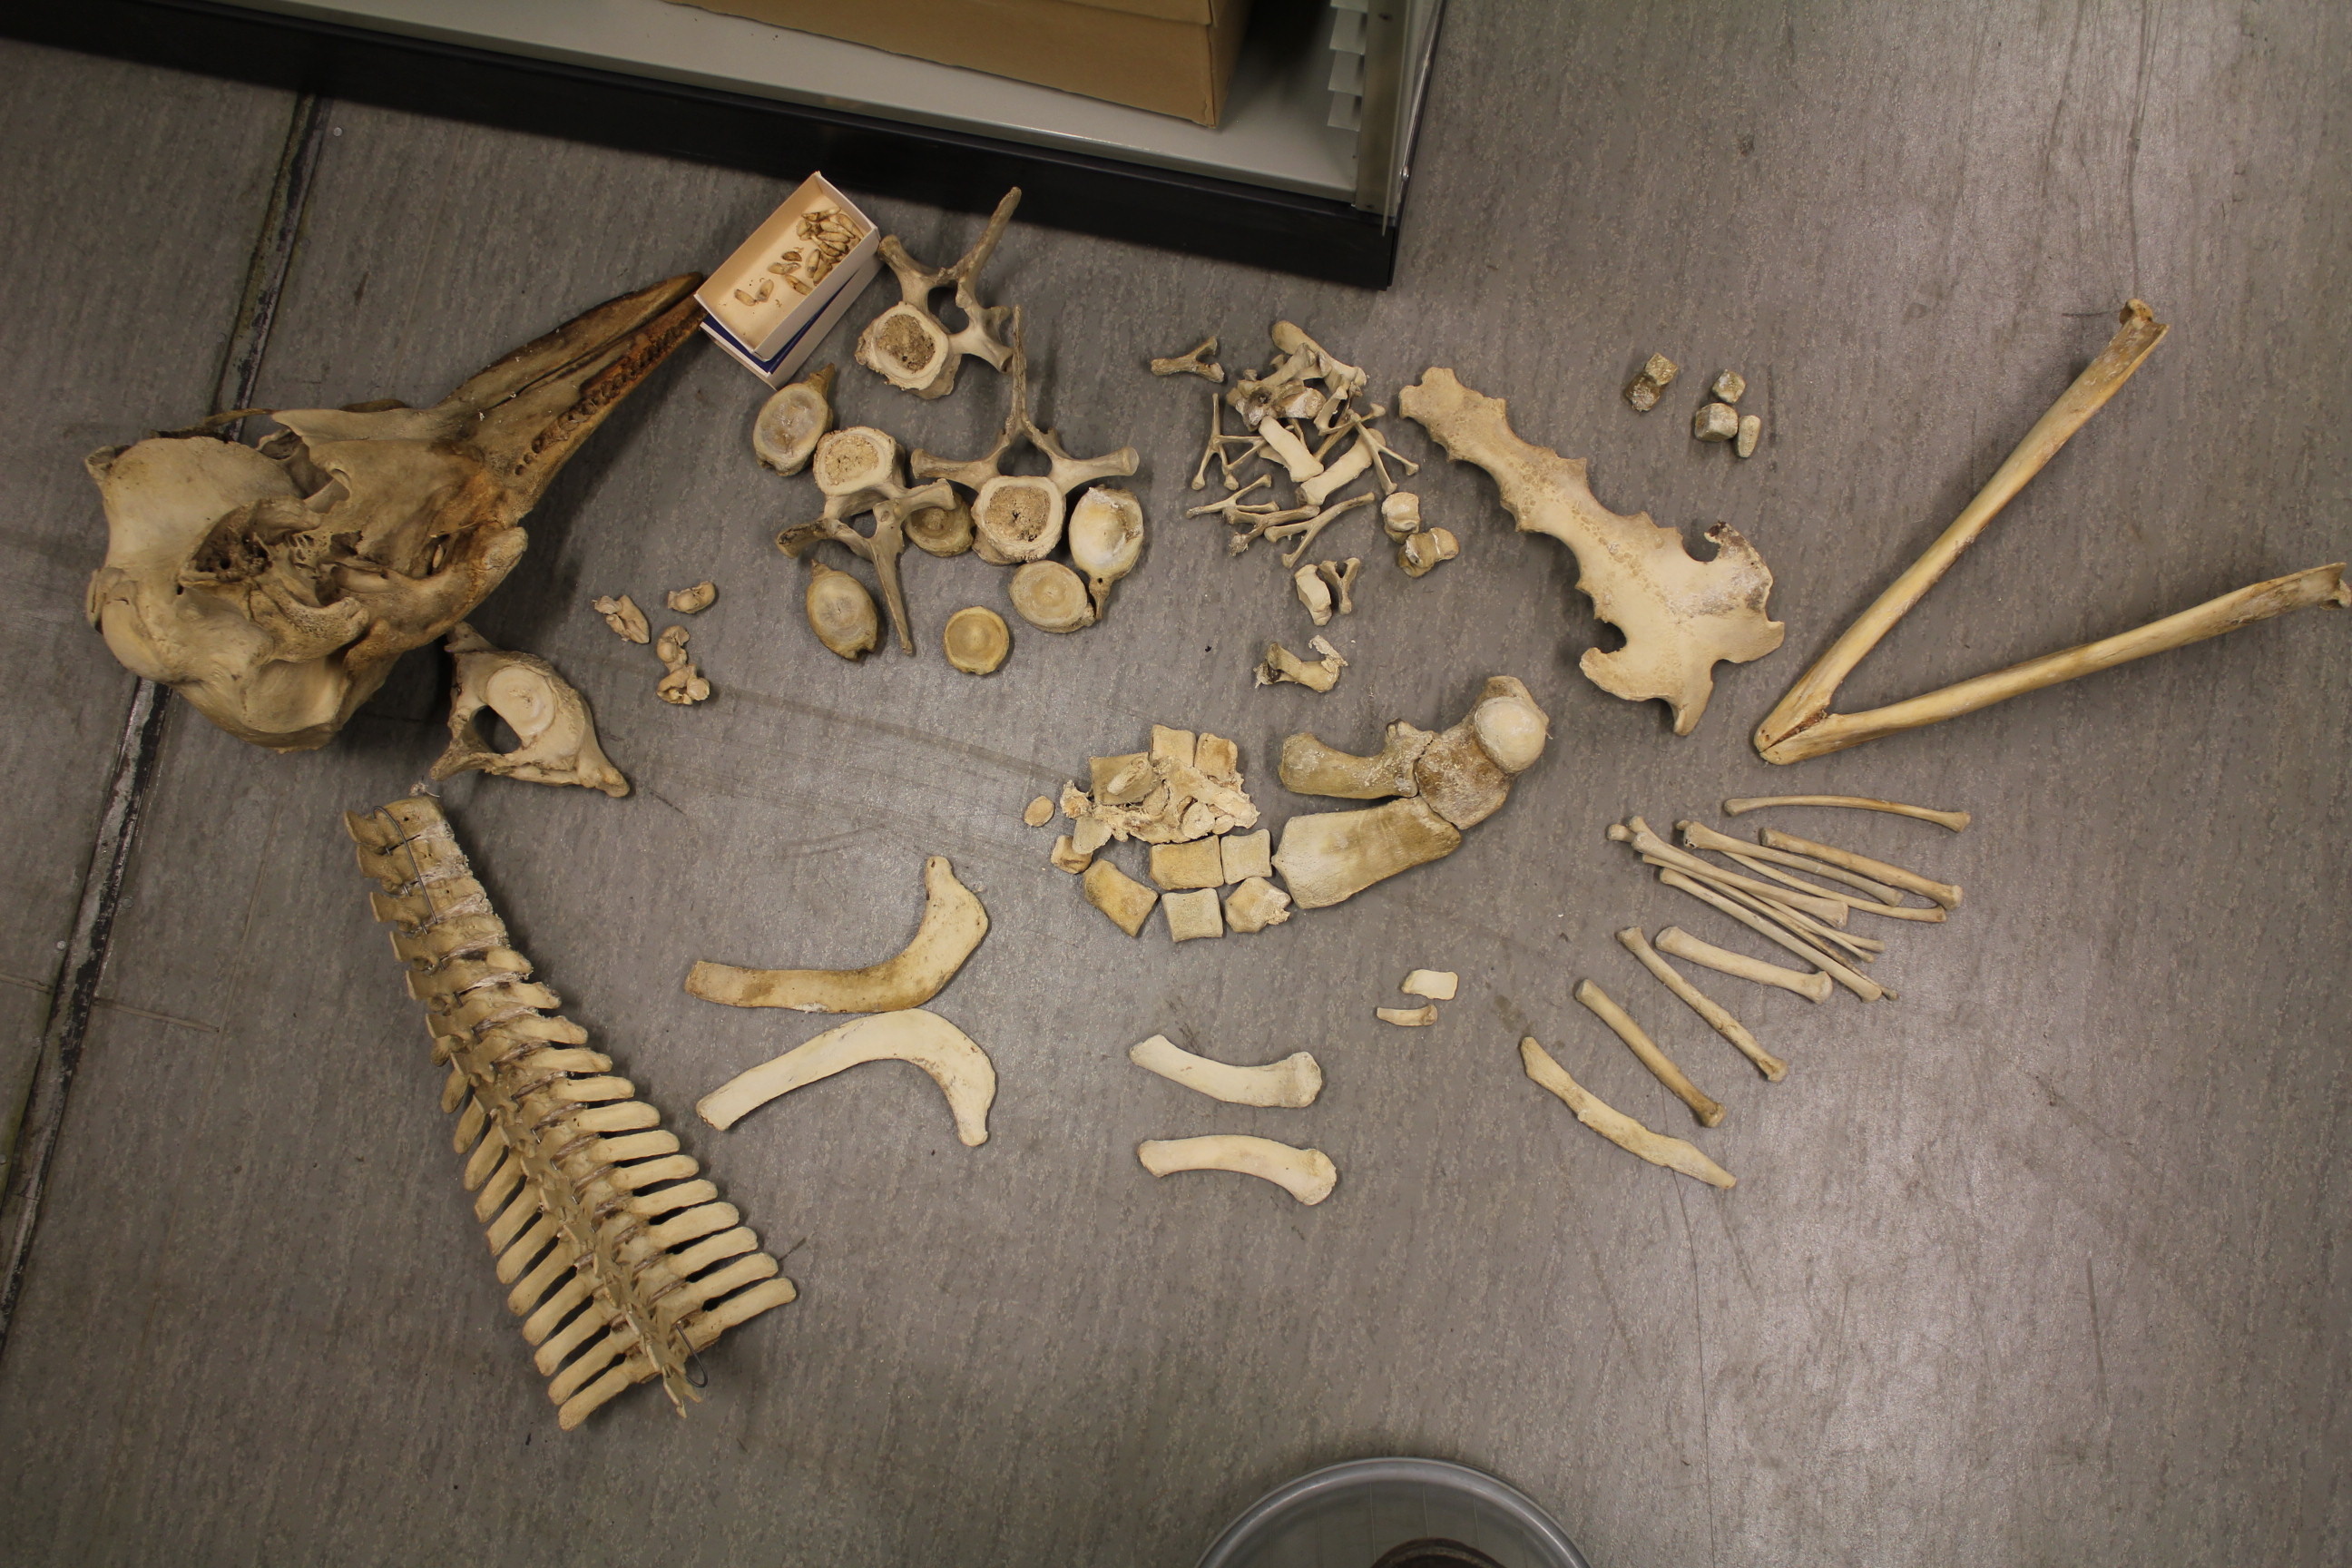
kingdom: Animalia
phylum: Chordata
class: Mammalia
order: Cetacea
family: Delphinidae
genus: Lagenorhynchus
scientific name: Lagenorhynchus albirostris
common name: White-beaked dolphin
